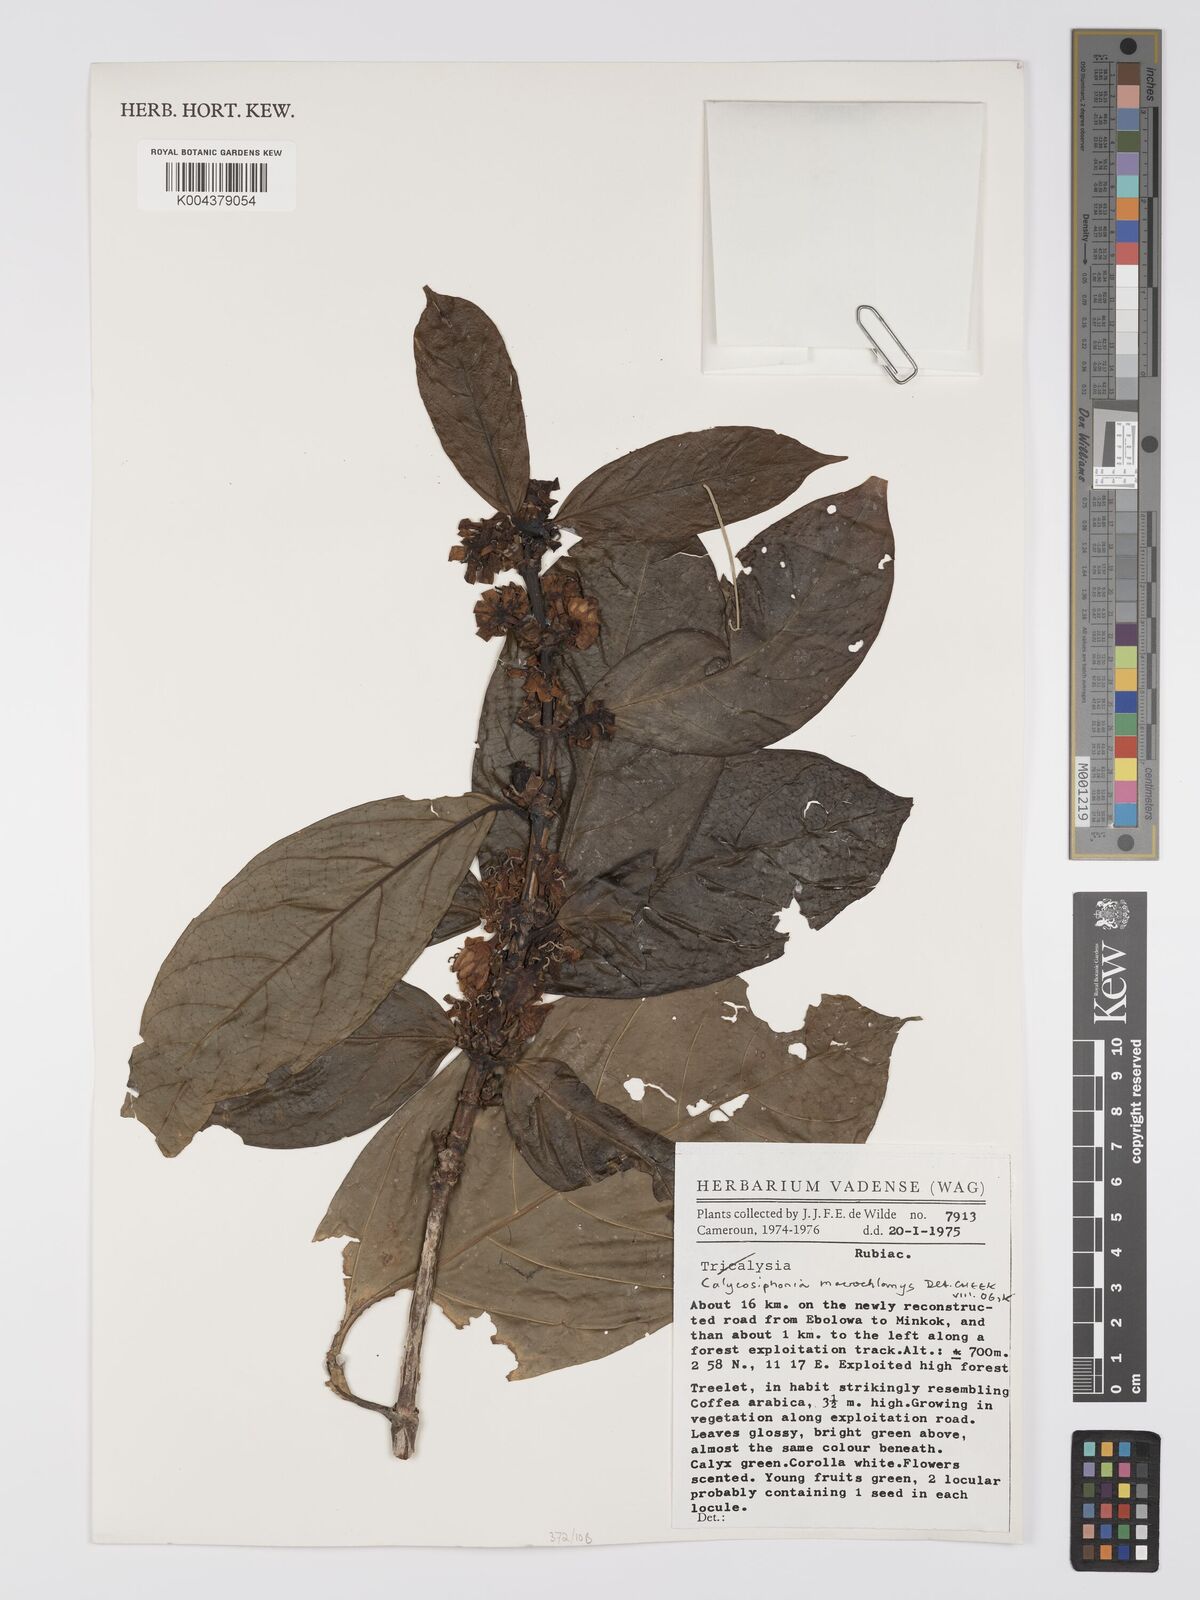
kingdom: Plantae
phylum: Tracheophyta
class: Magnoliopsida
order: Gentianales
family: Rubiaceae
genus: Calycosiphonia
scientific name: Calycosiphonia macrochlamys
